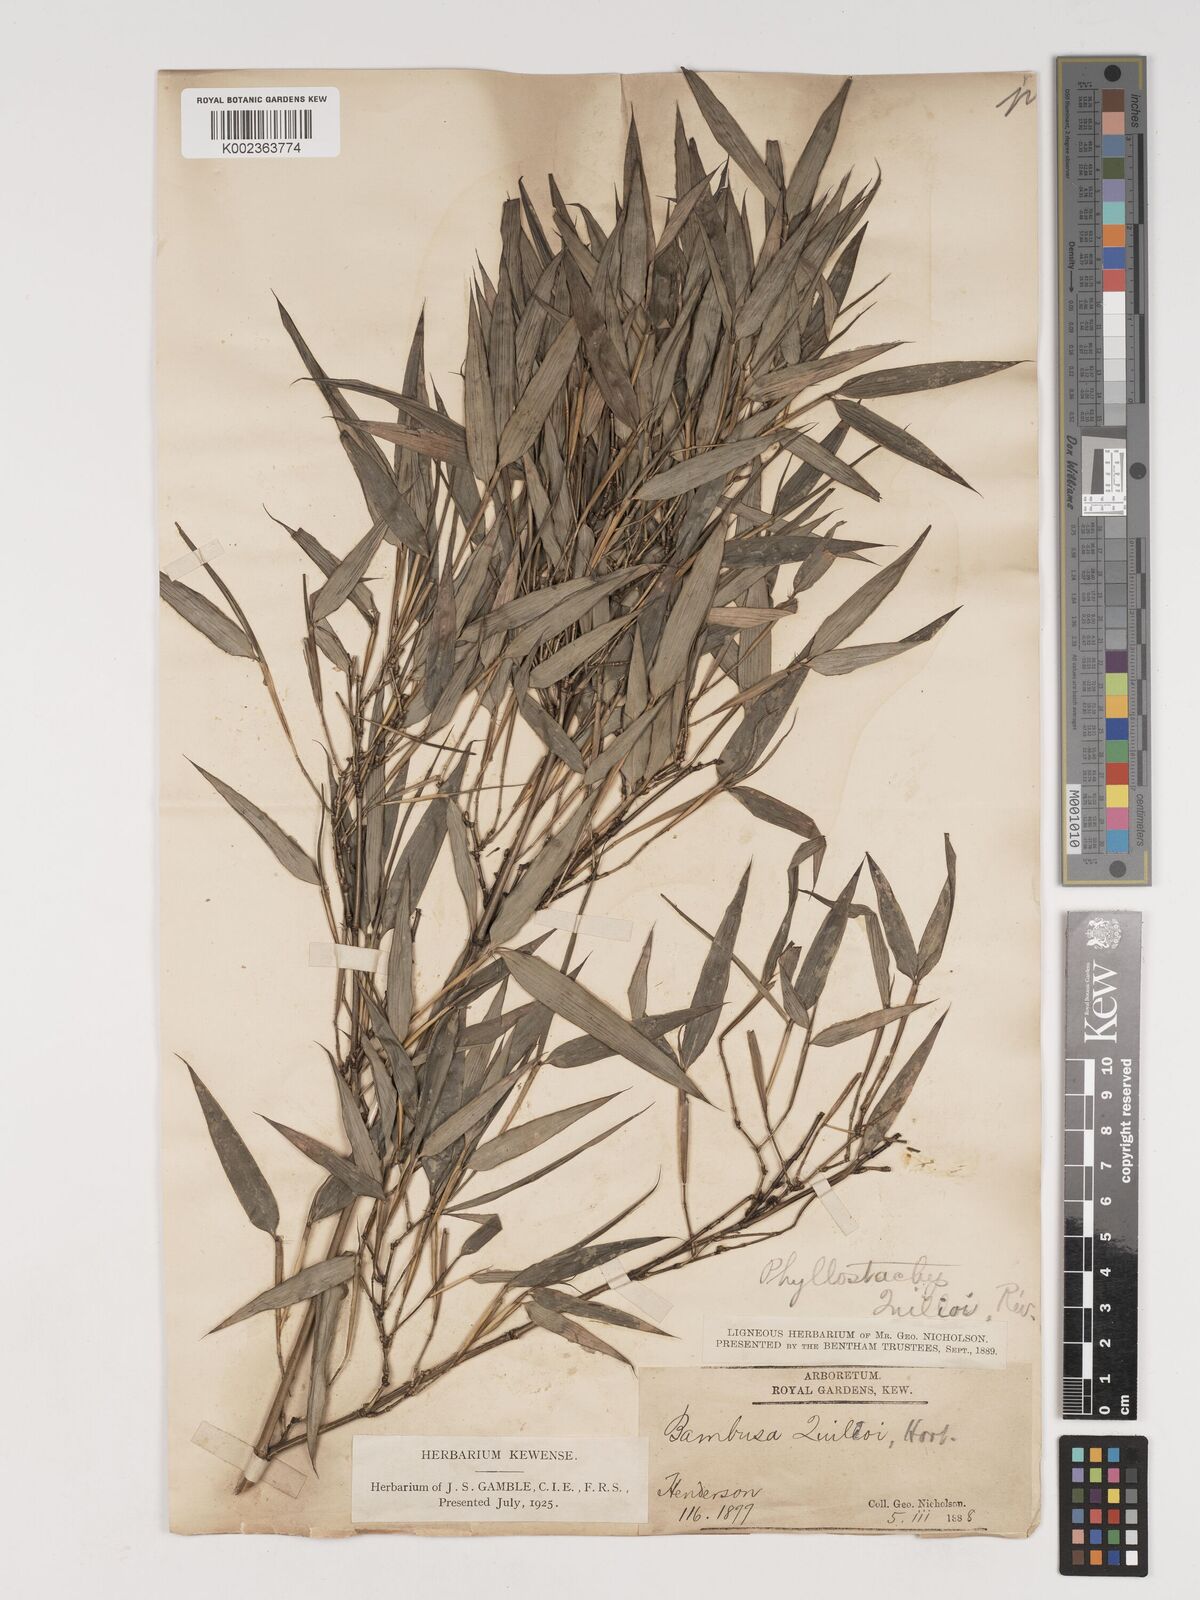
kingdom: Plantae
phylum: Tracheophyta
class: Liliopsida
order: Poales
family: Poaceae
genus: Phyllostachys
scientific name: Phyllostachys reticulata
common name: Bamboo
